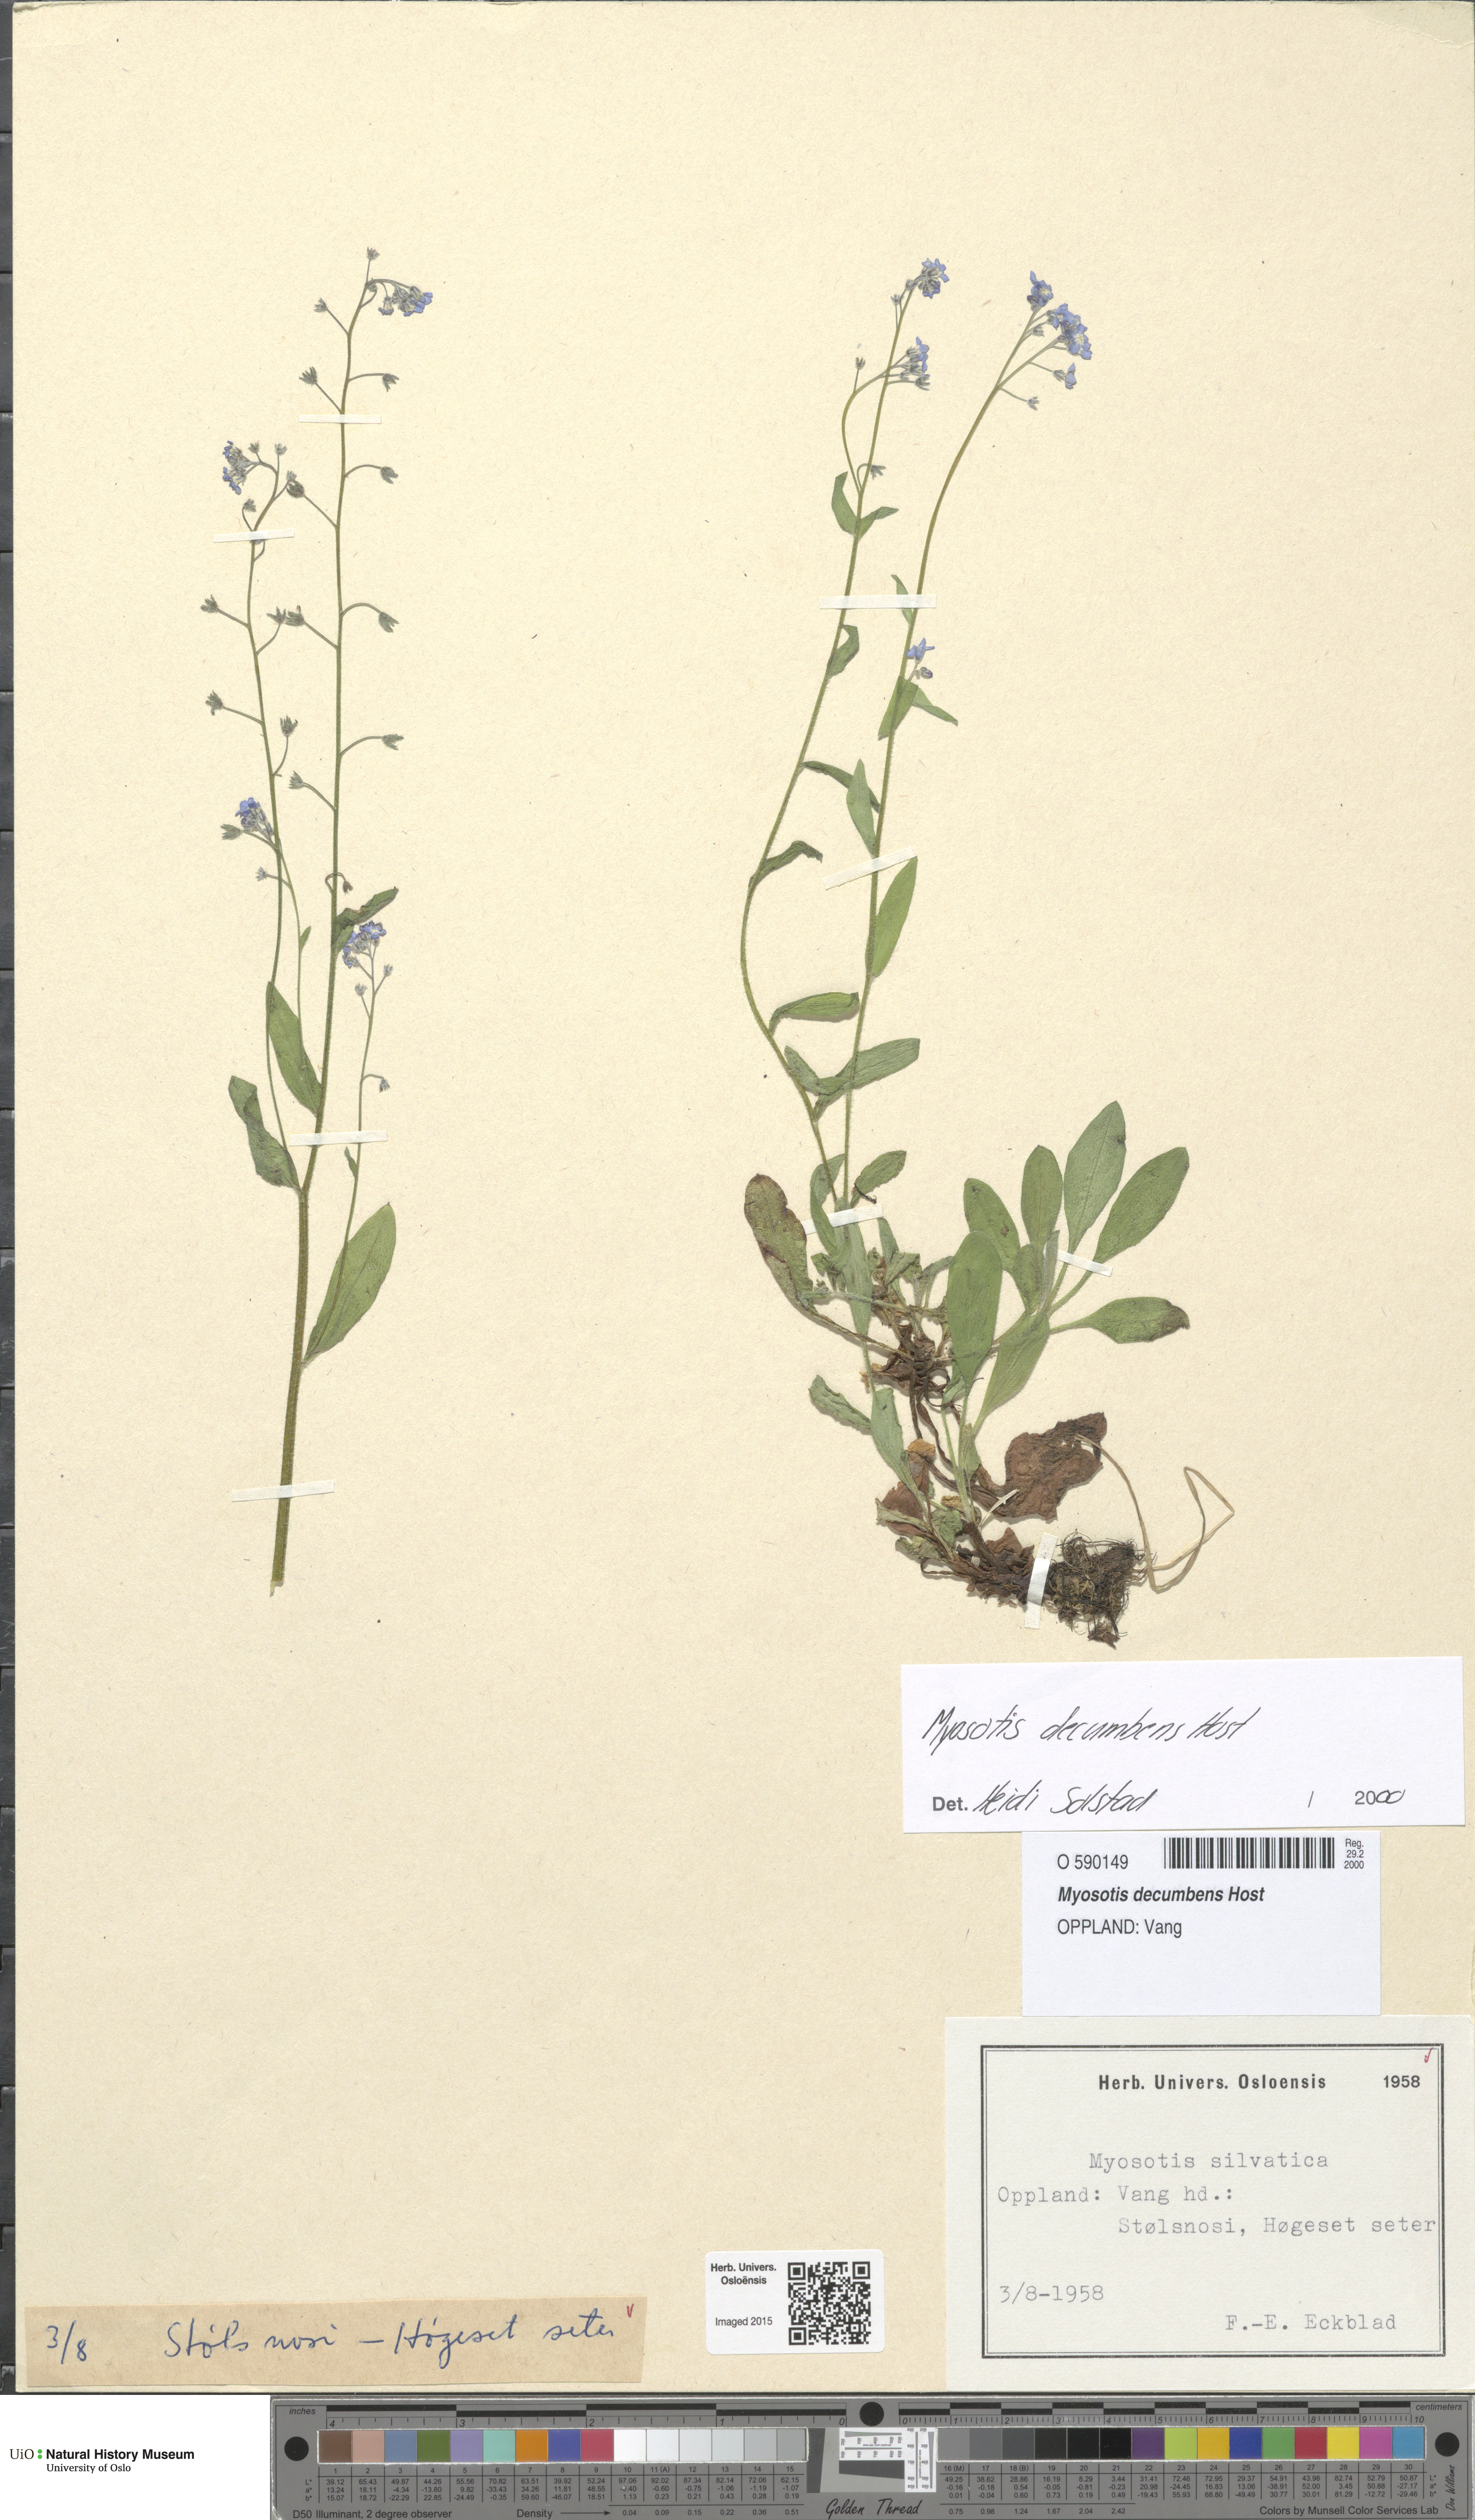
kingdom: Plantae
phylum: Tracheophyta
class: Magnoliopsida
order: Boraginales
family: Boraginaceae
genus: Myosotis
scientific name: Myosotis decumbens
